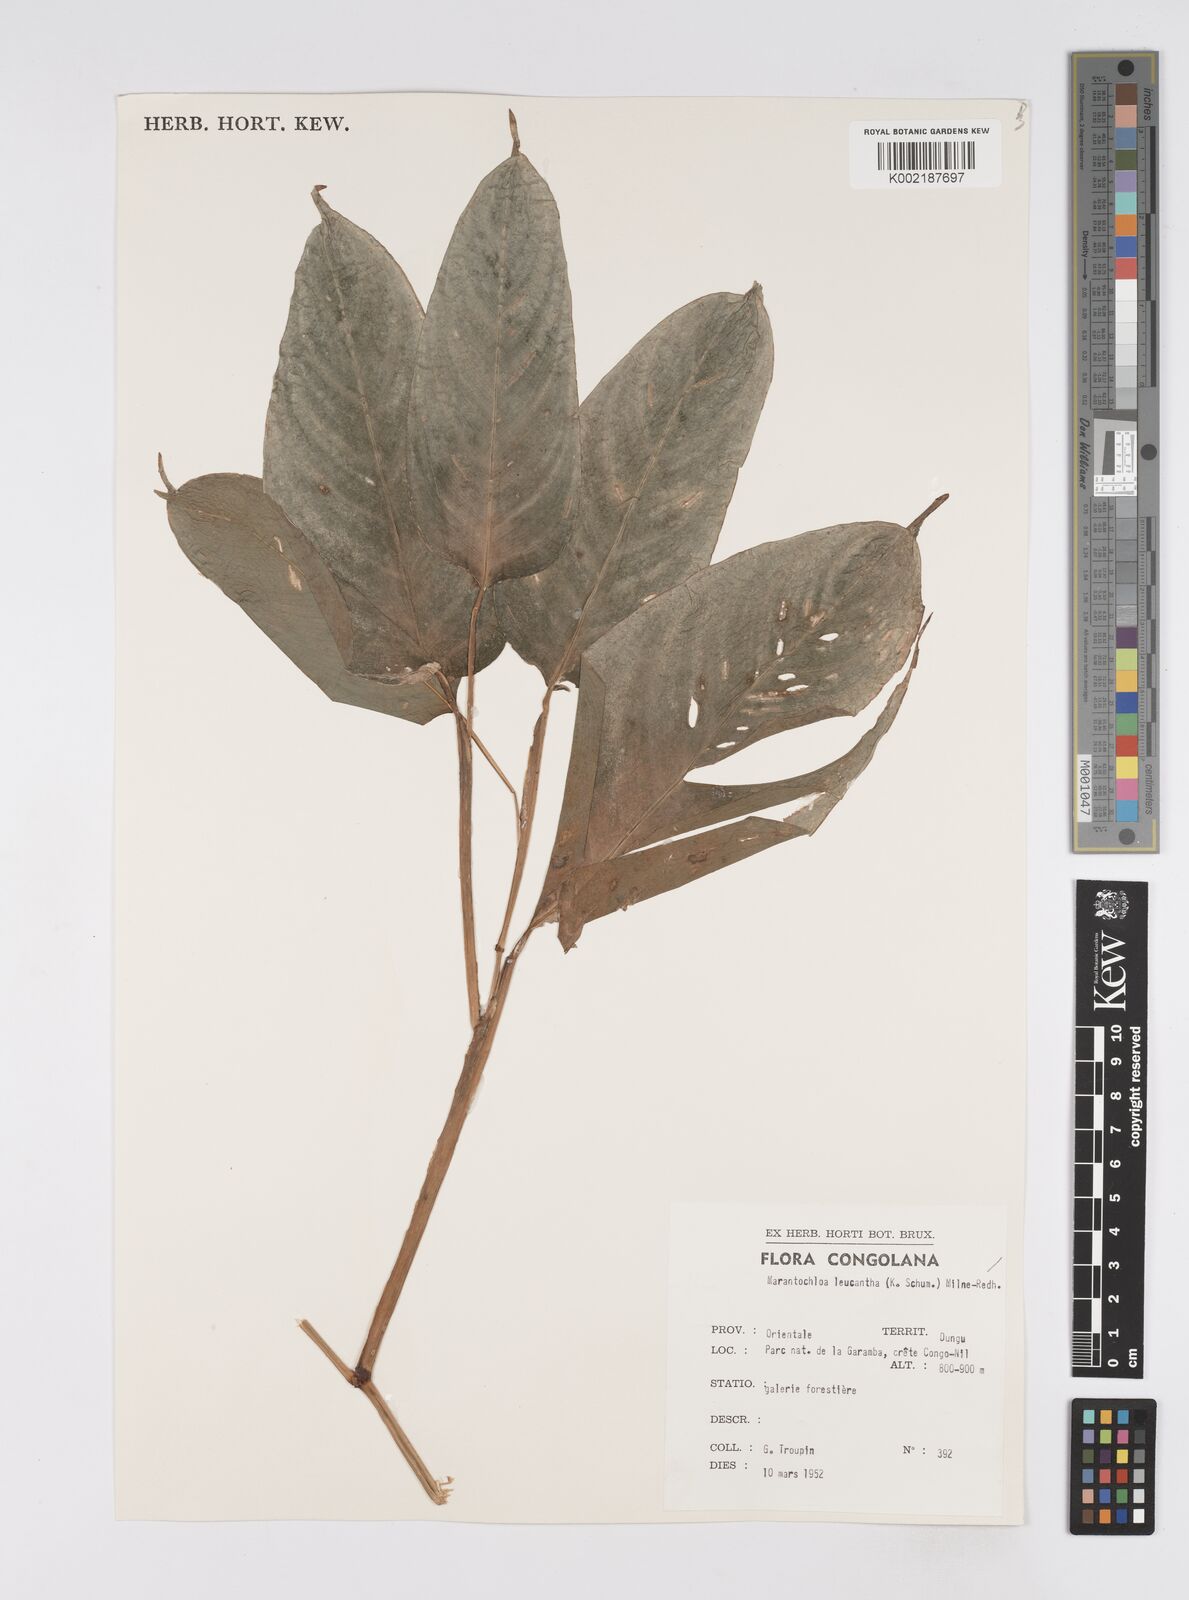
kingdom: Plantae
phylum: Tracheophyta
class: Liliopsida
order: Zingiberales
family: Marantaceae
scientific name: Marantaceae
